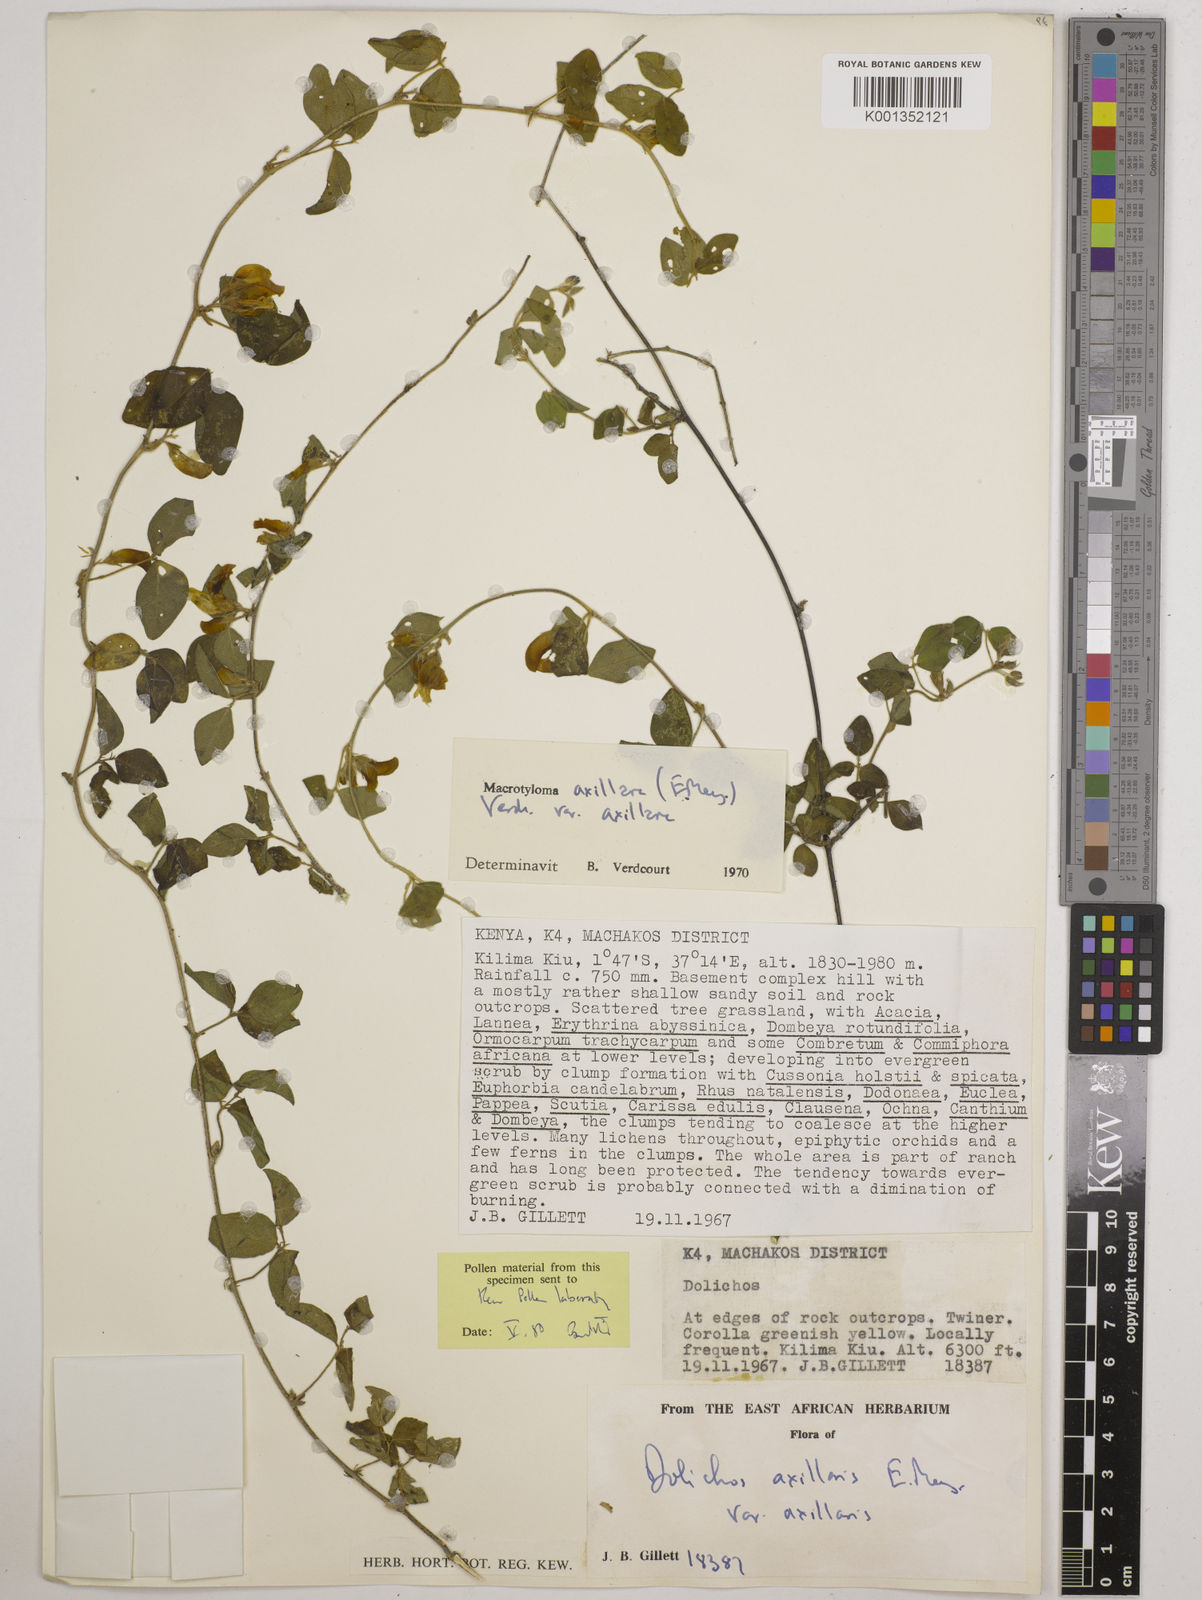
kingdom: Plantae
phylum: Tracheophyta
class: Magnoliopsida
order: Fabales
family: Fabaceae
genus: Macrotyloma
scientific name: Macrotyloma axillare
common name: Perennial horsegram
